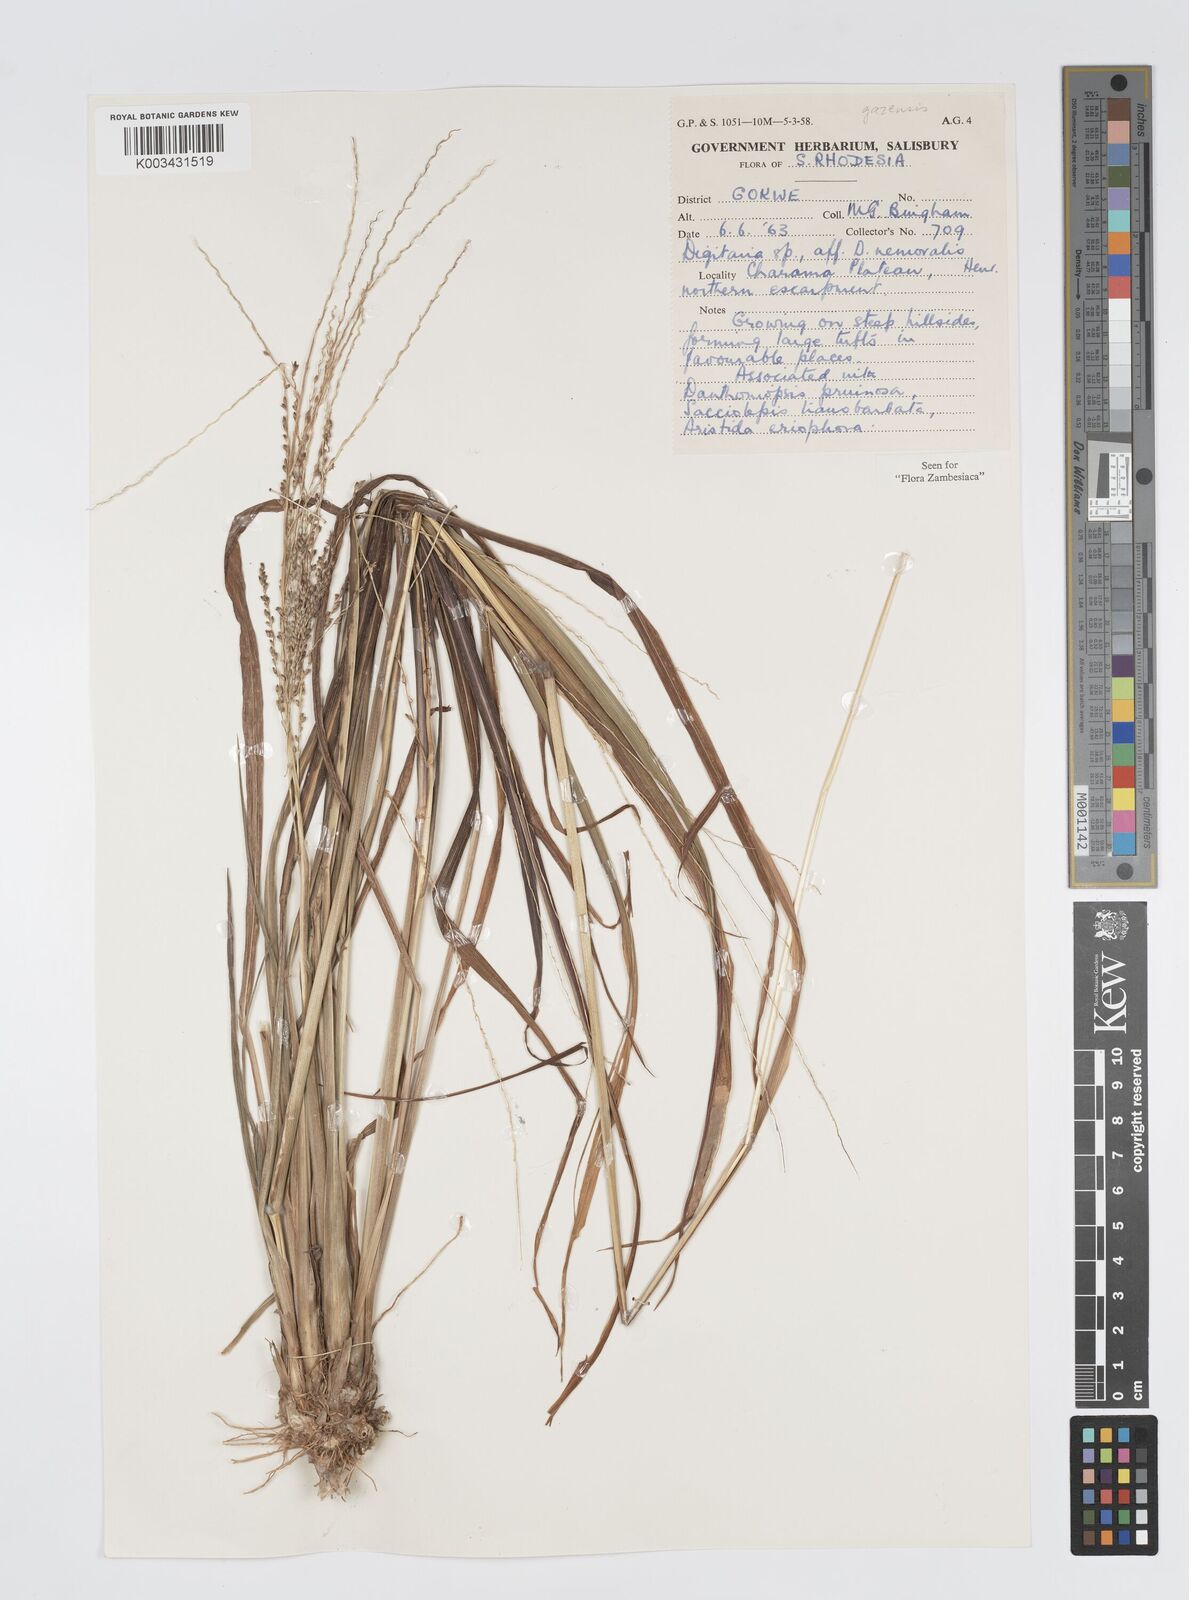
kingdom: Plantae
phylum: Tracheophyta
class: Liliopsida
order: Poales
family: Poaceae
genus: Digitaria
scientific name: Digitaria gazensis
